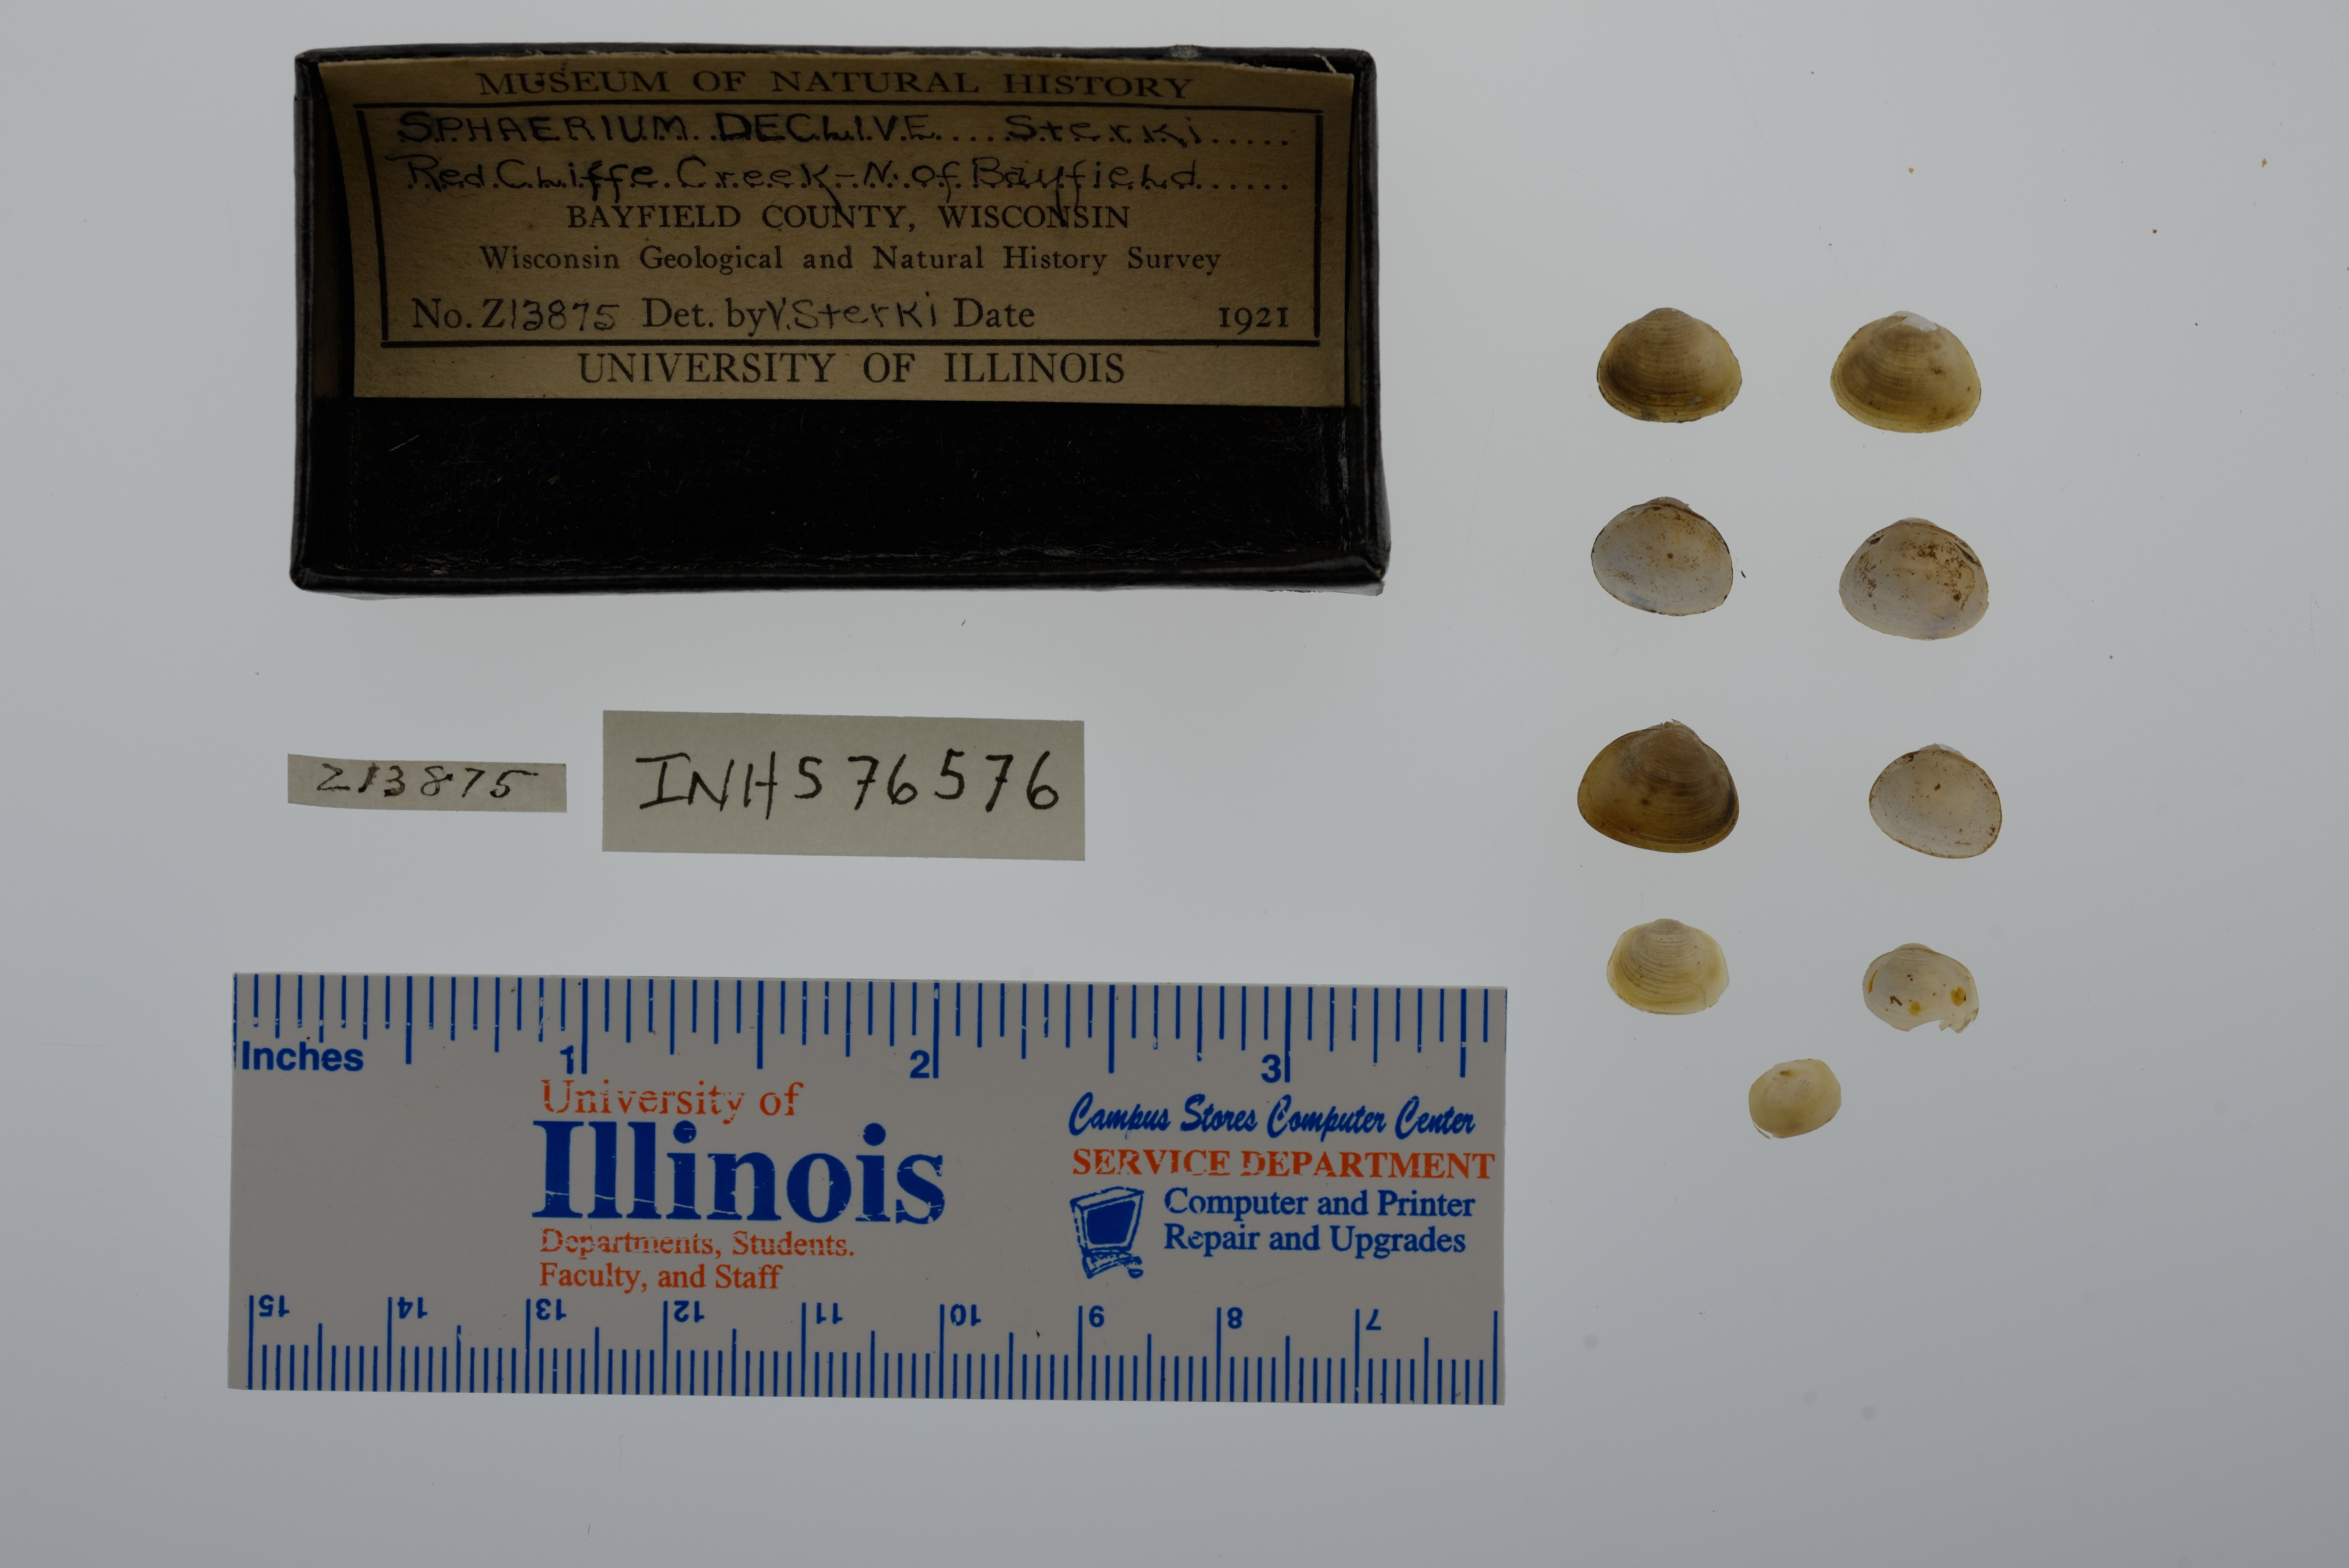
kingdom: Animalia
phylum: Mollusca
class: Bivalvia
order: Sphaeriida
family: Sphaeriidae
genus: Sphaerium
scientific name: Sphaerium striatinum
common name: Striated fingernailclam
